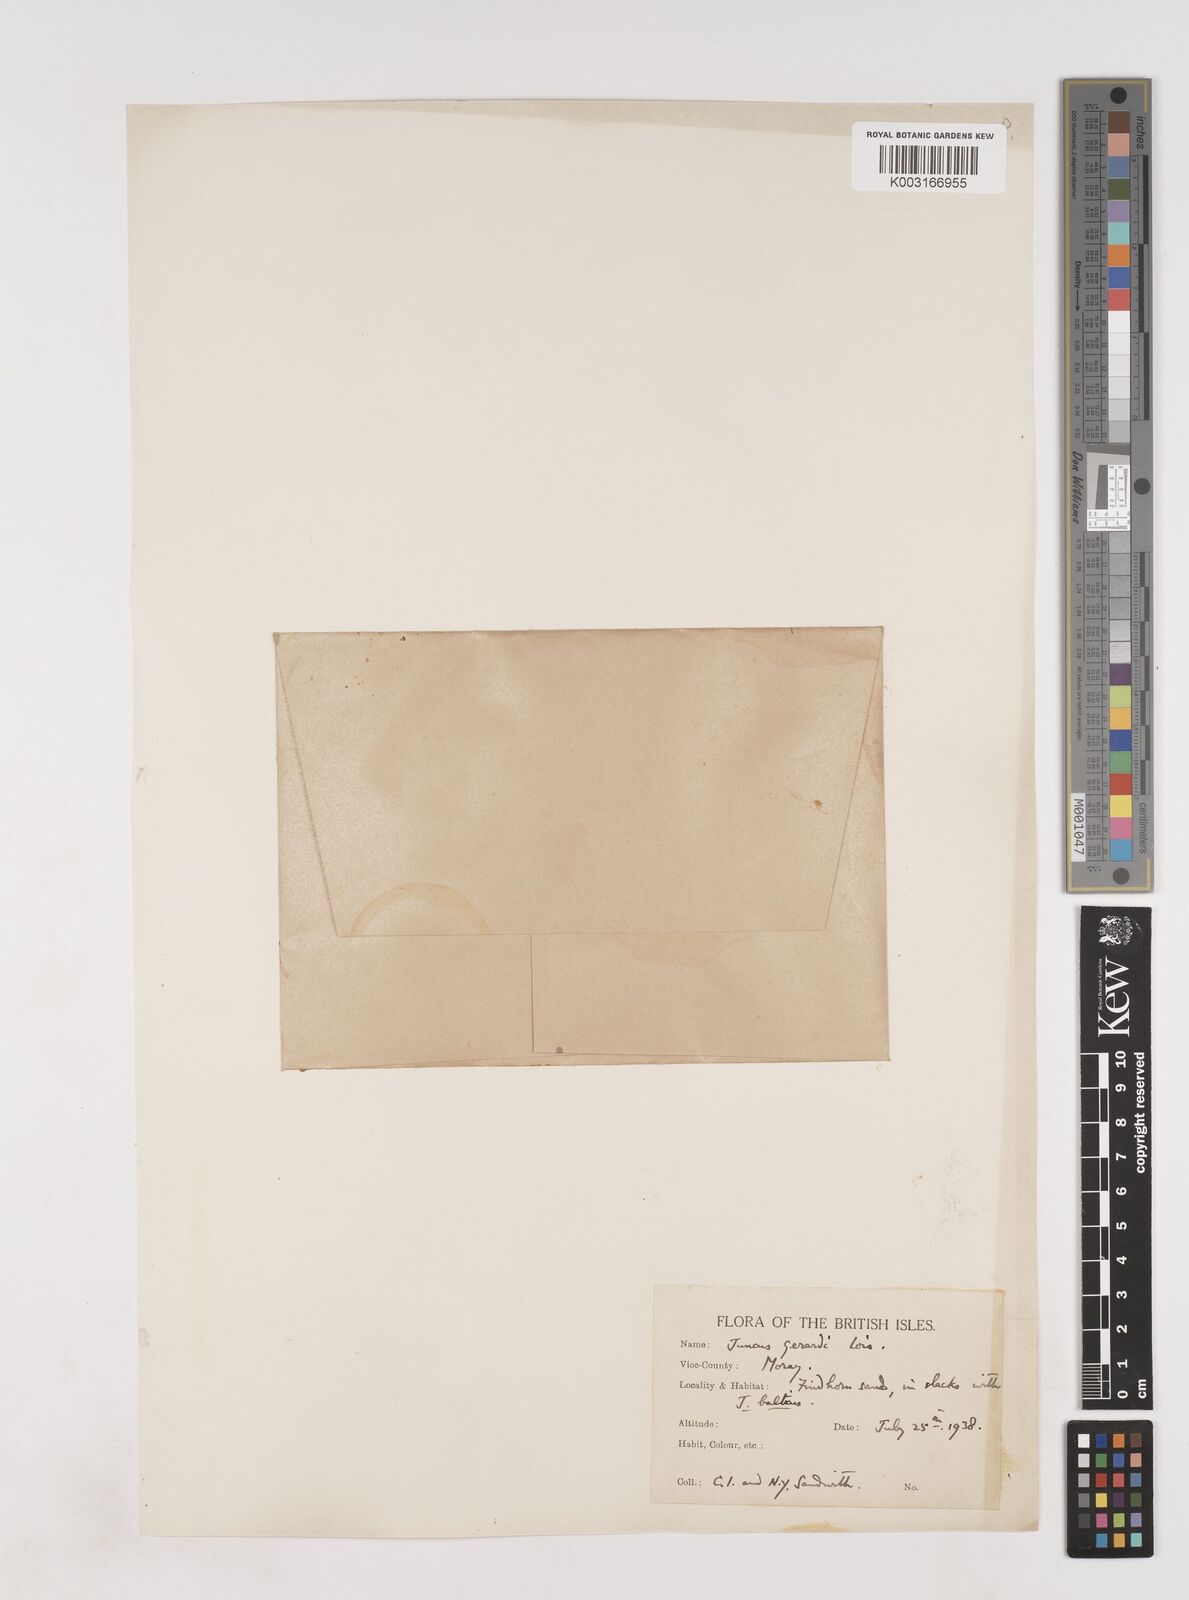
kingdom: Plantae
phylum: Tracheophyta
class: Liliopsida
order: Poales
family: Juncaceae
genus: Juncus
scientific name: Juncus gerardi
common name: Saltmarsh rush
